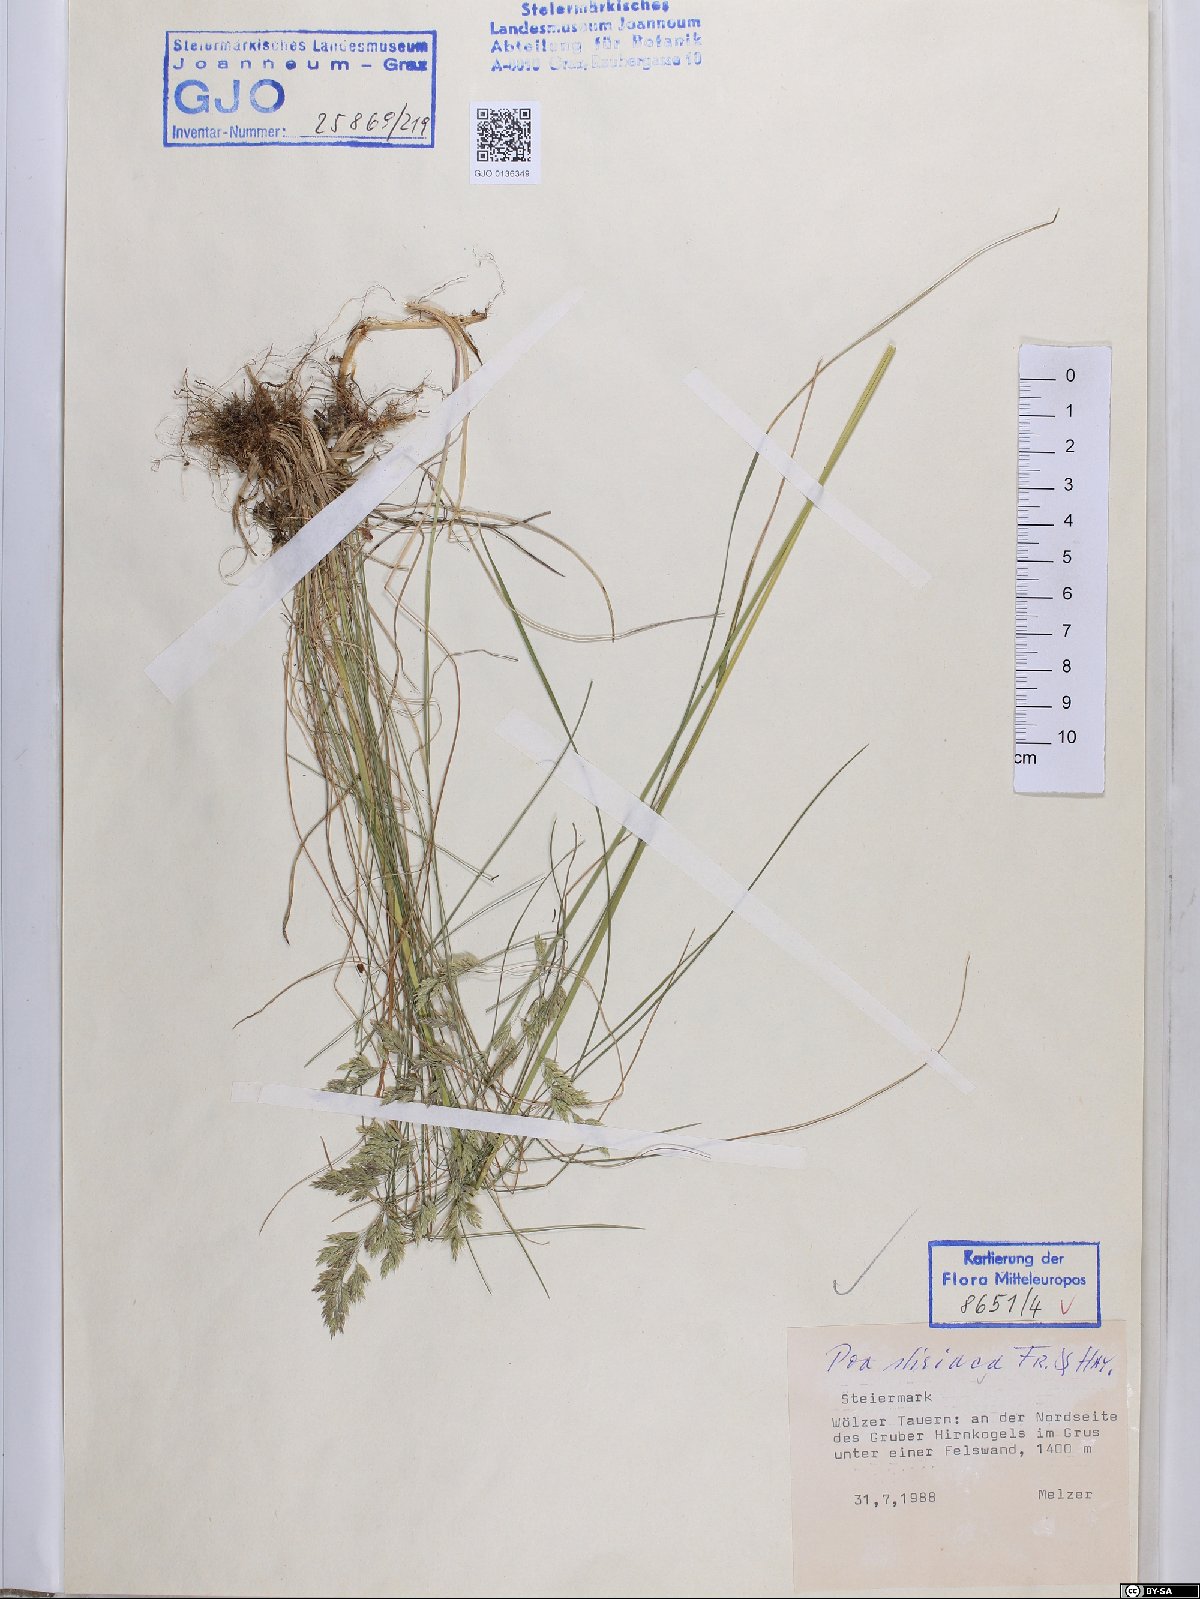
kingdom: Plantae
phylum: Tracheophyta
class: Liliopsida
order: Poales
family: Poaceae
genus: Poa
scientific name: Poa stiriaca
